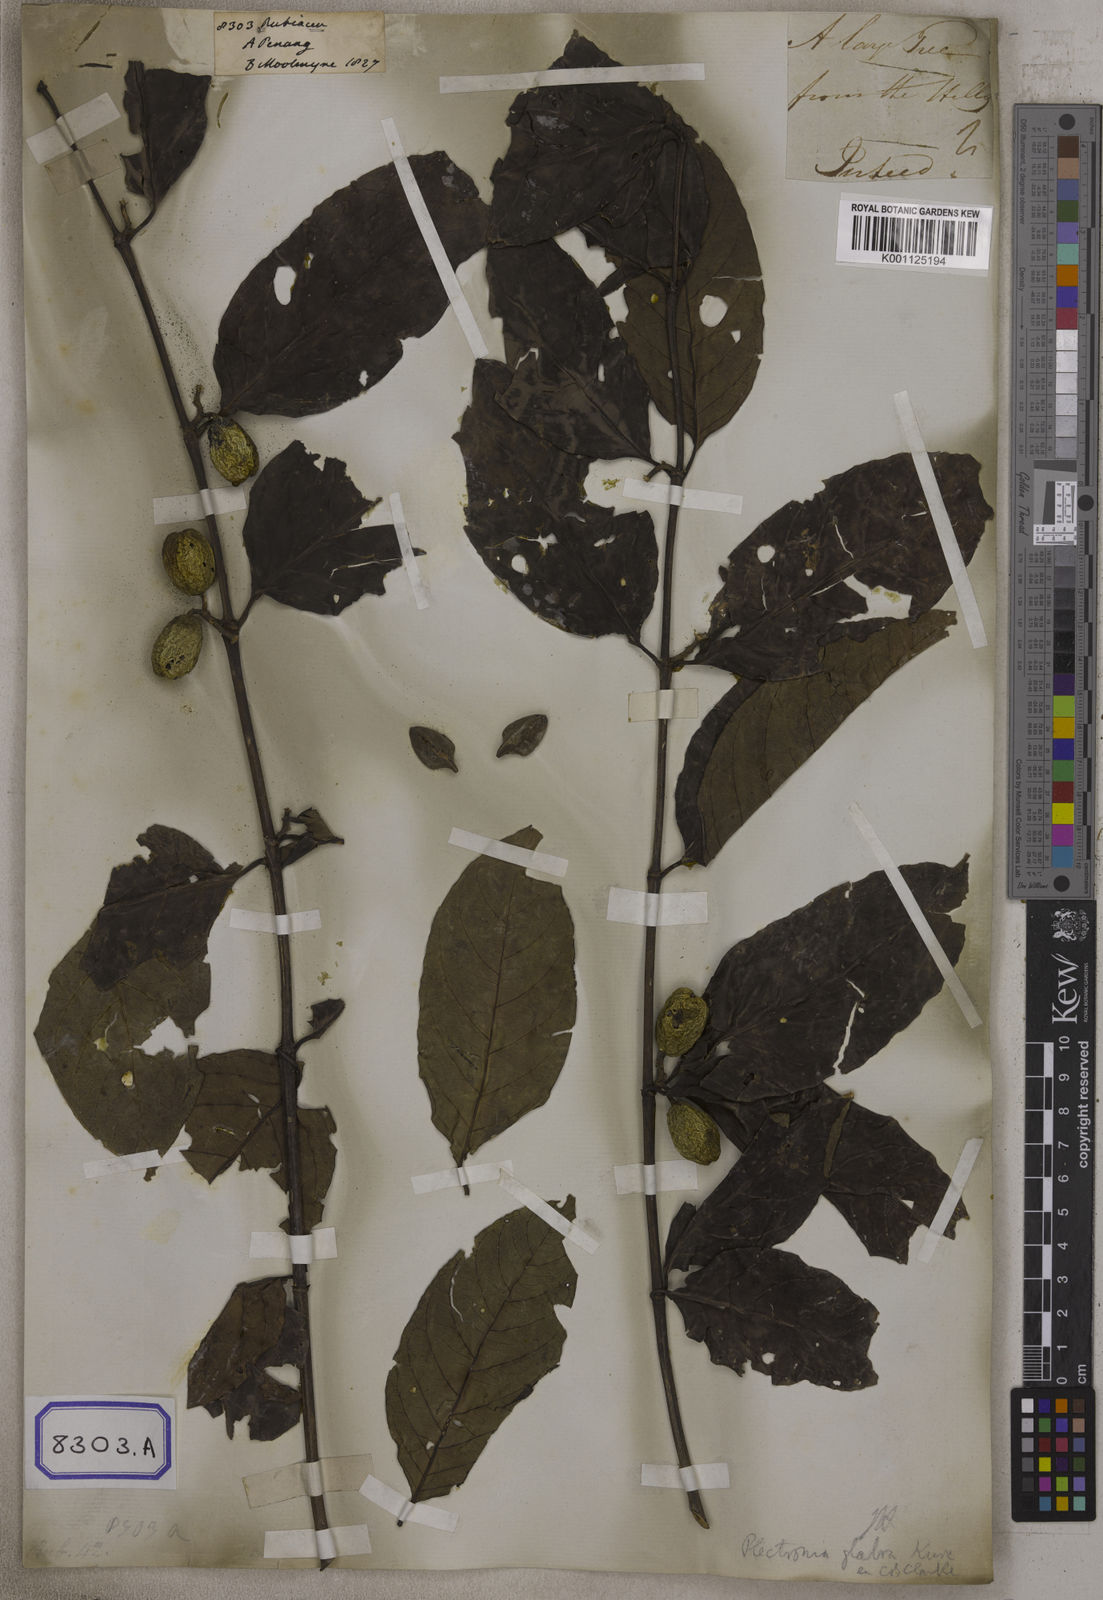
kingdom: Plantae
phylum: Tracheophyta
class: Magnoliopsida
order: Gentianales
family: Rubiaceae
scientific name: Rubiaceae
